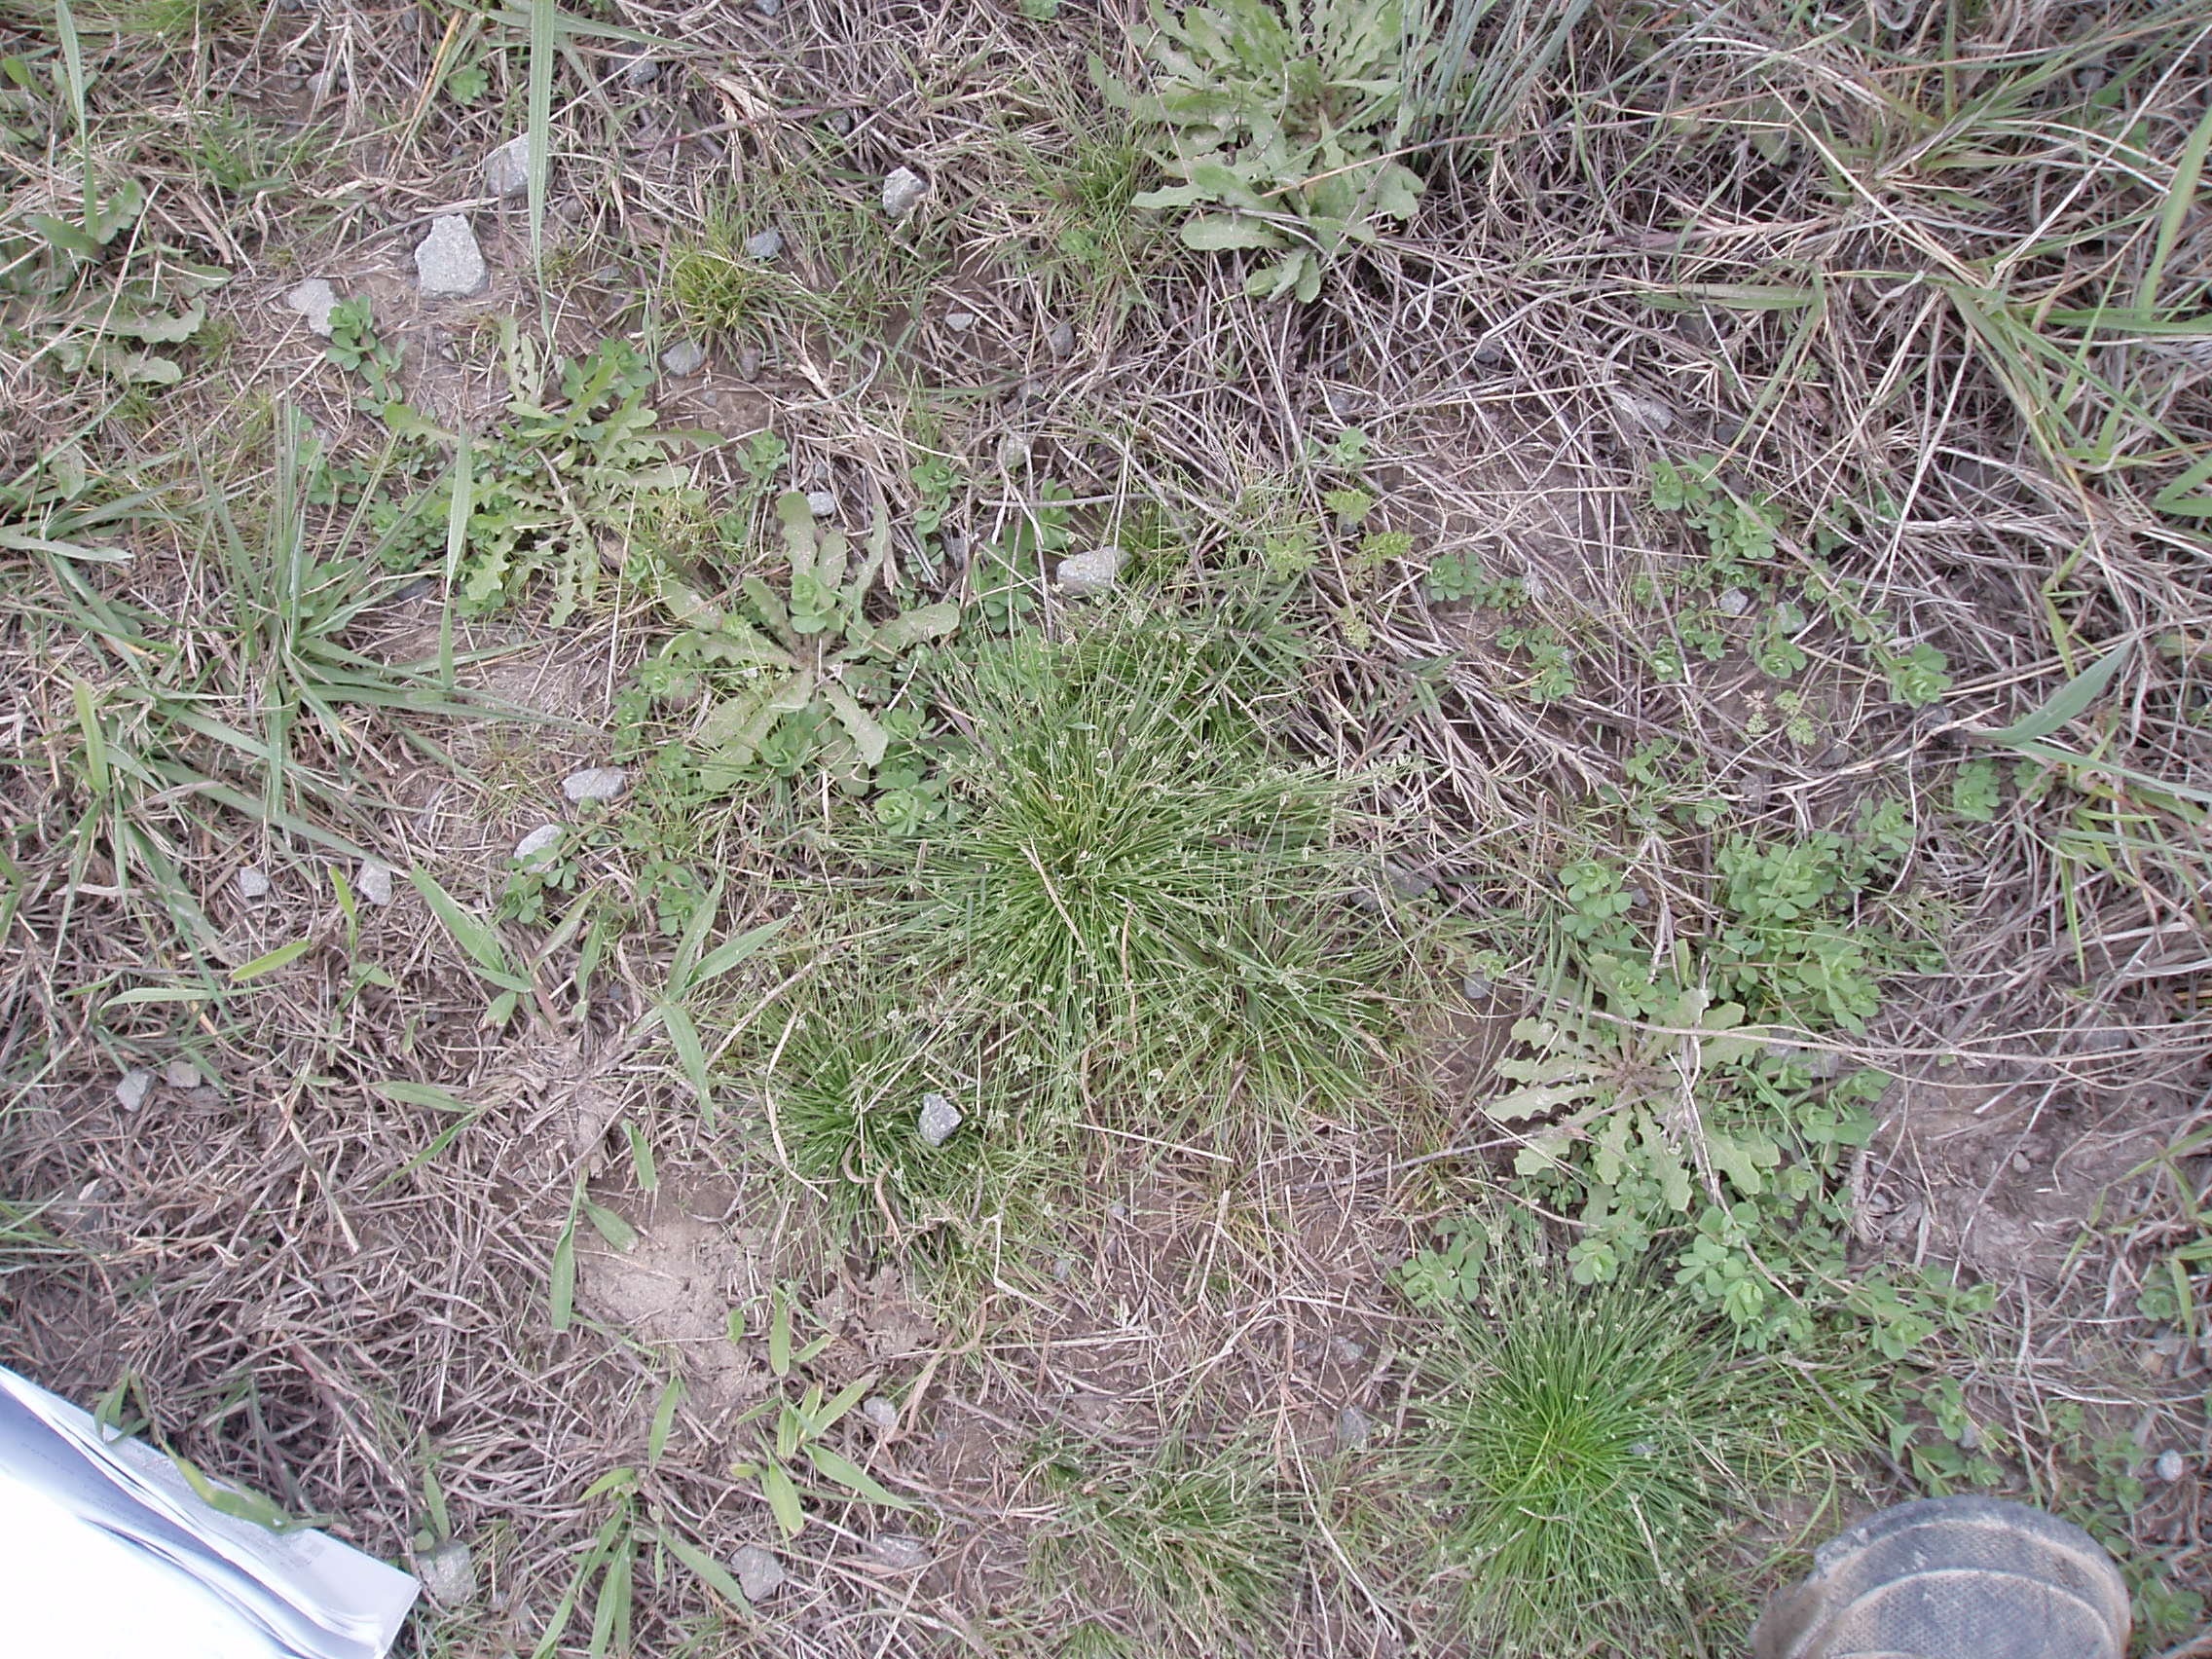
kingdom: Plantae
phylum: Tracheophyta
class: Liliopsida
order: Poales
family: Cyperaceae
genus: Isolepis
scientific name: Isolepis levynsiana
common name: Sedge
